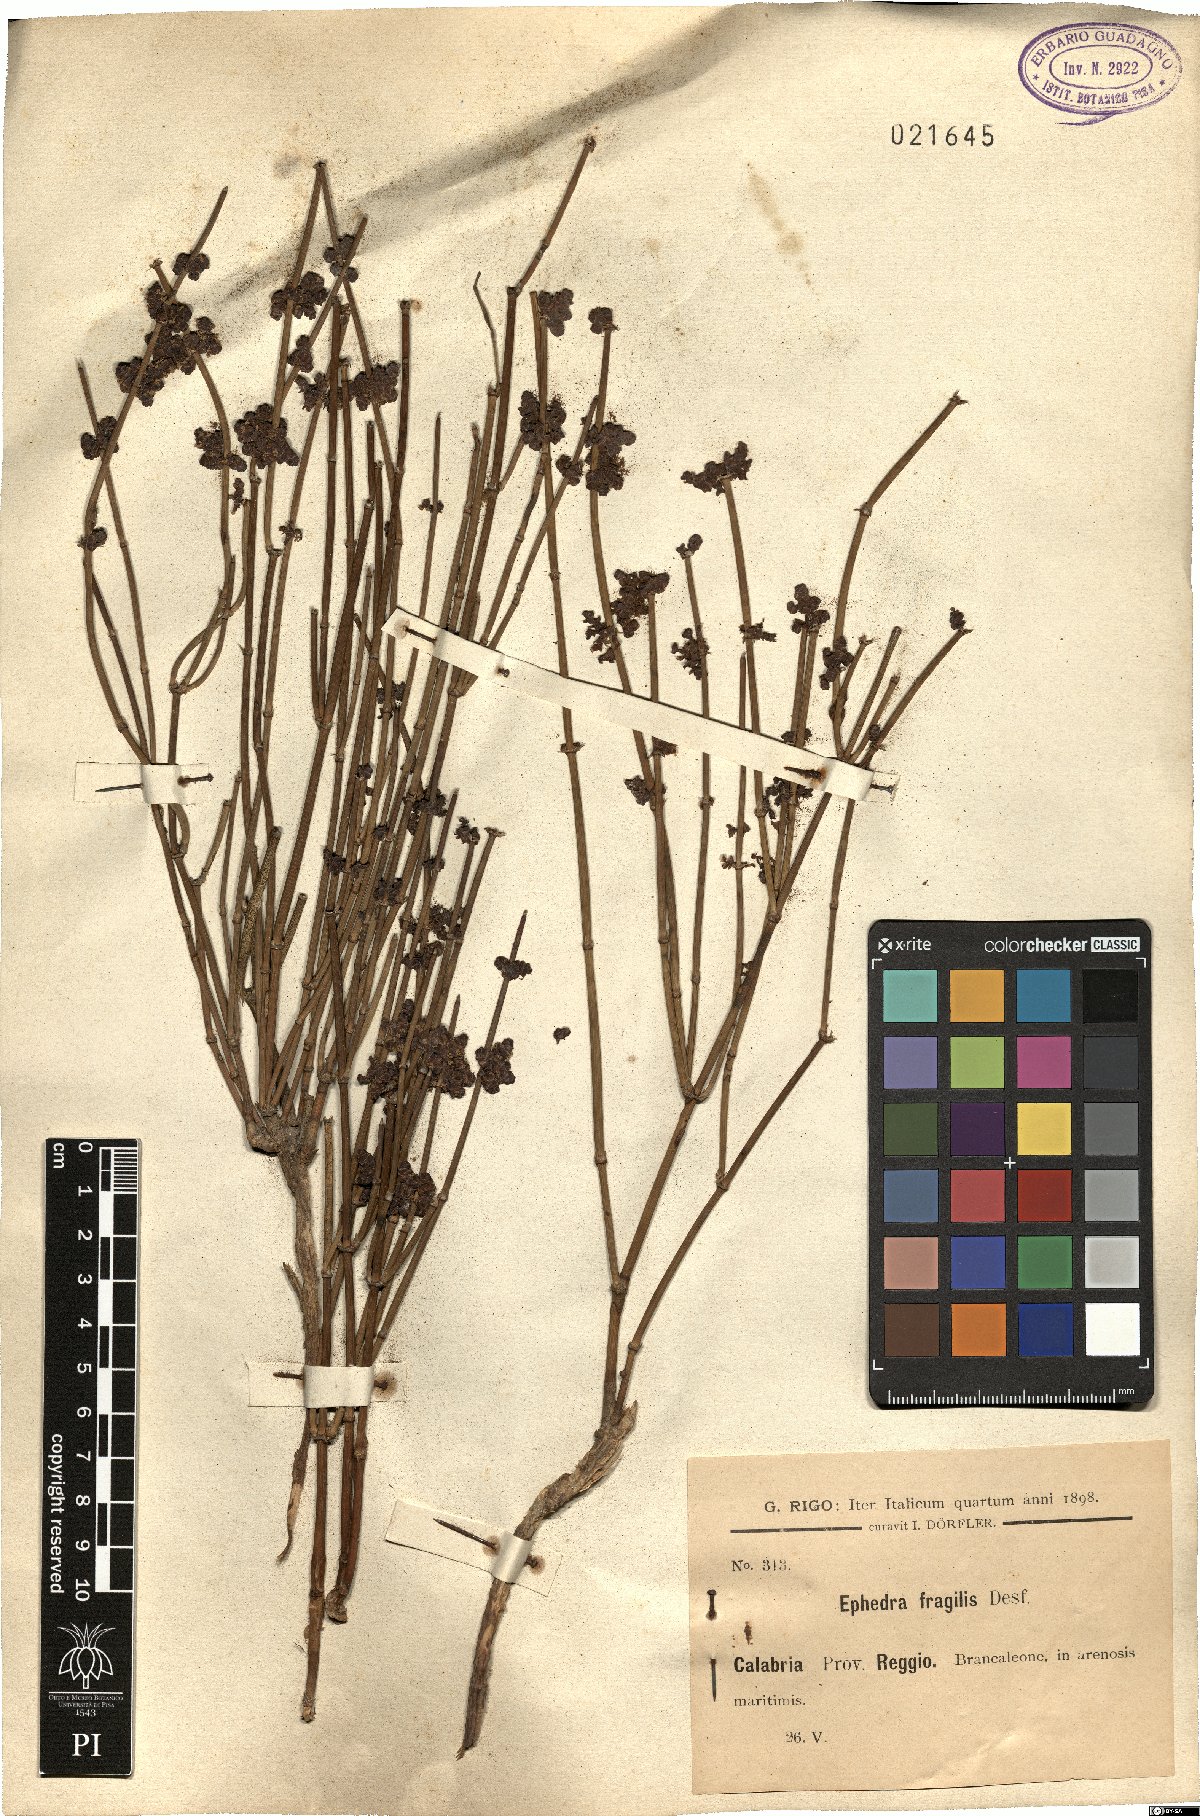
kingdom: Plantae
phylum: Tracheophyta
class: Gnetopsida
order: Ephedrales
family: Ephedraceae
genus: Ephedra
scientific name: Ephedra fragilis
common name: Joint pine
